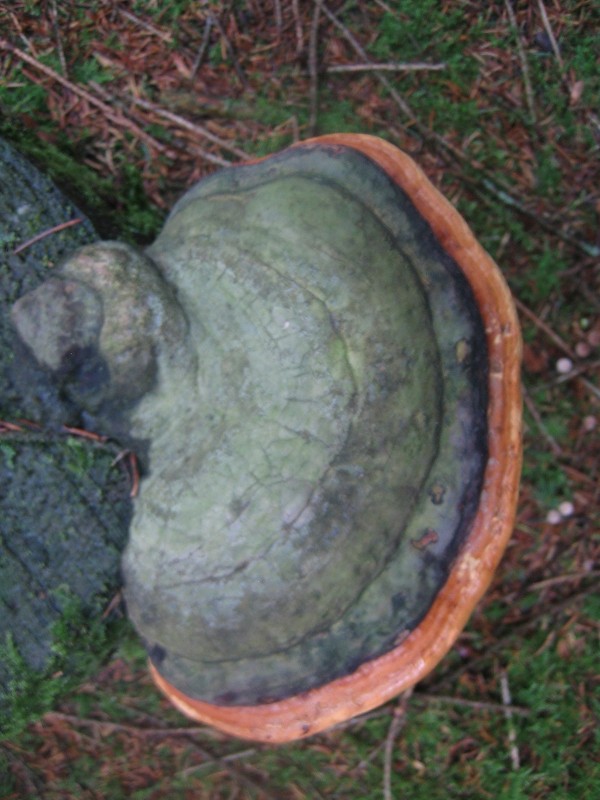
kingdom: Fungi
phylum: Basidiomycota
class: Agaricomycetes
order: Polyporales
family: Fomitopsidaceae
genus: Fomitopsis
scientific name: Fomitopsis pinicola
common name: randbæltet hovporesvamp
